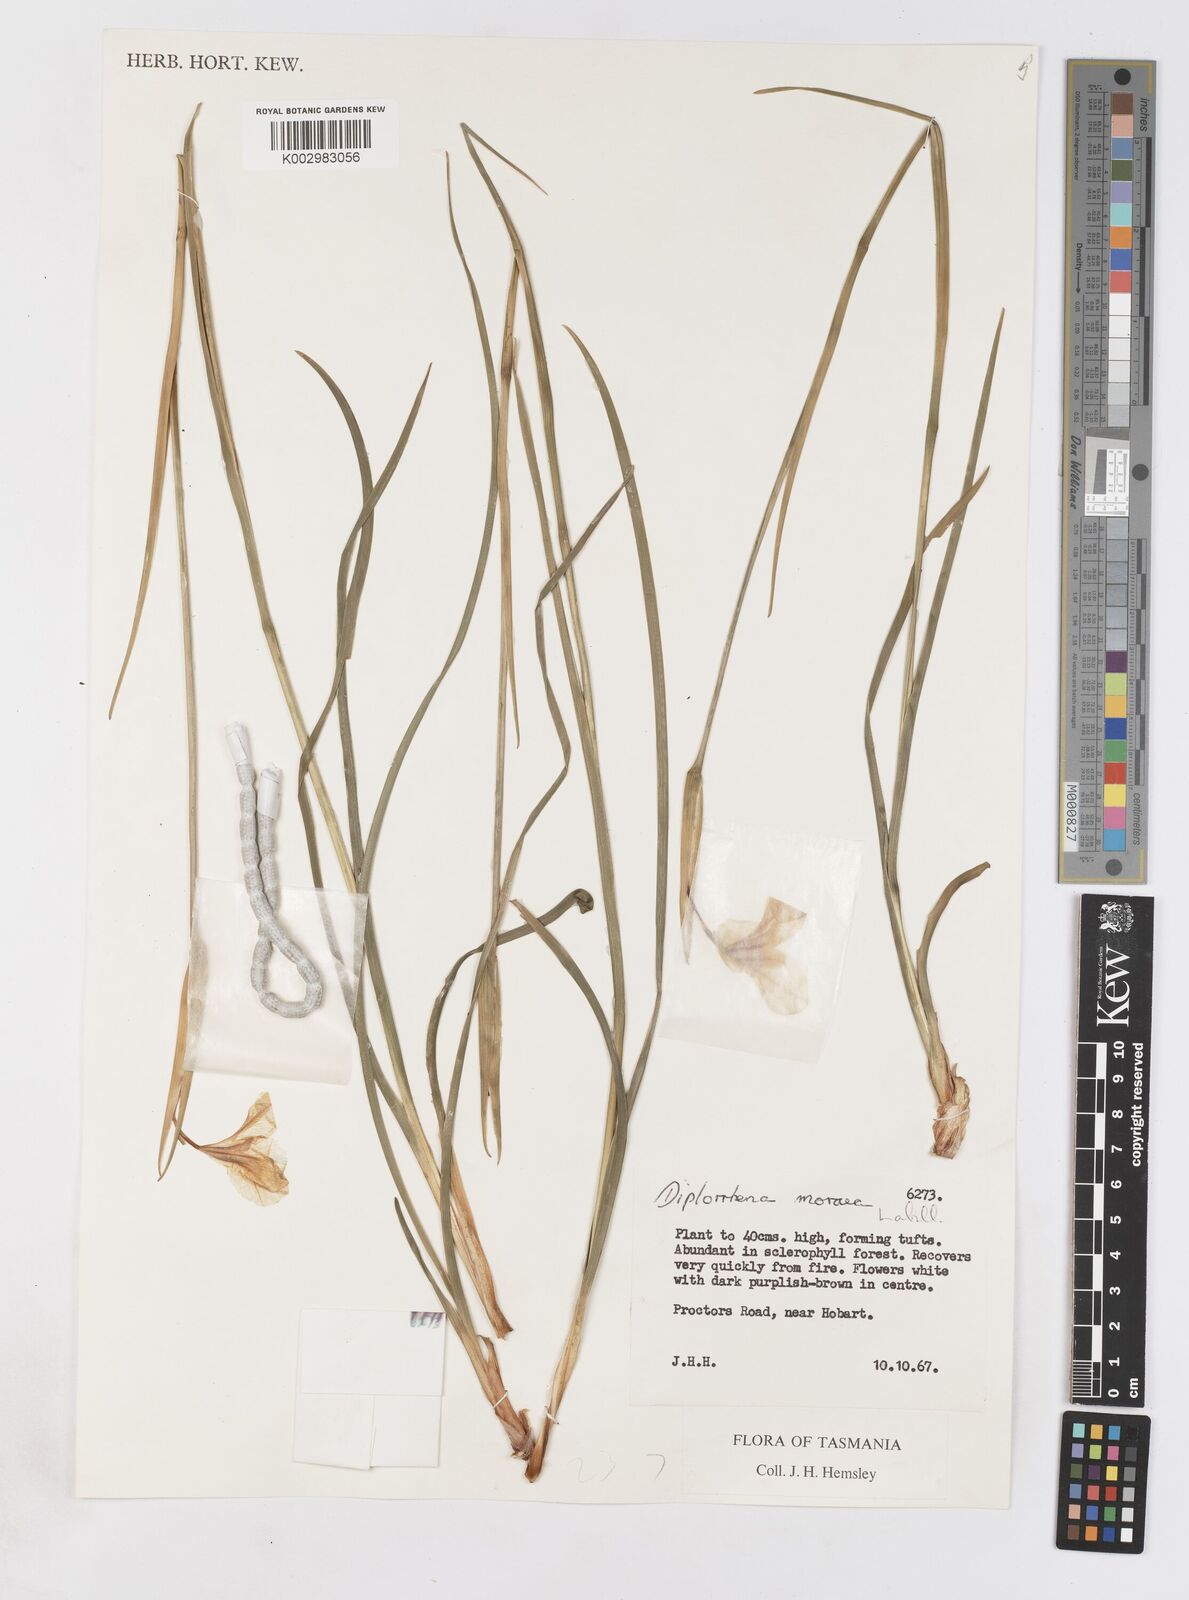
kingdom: Plantae
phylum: Tracheophyta
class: Liliopsida
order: Asparagales
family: Iridaceae
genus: Diplarrena
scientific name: Diplarrena moraea
